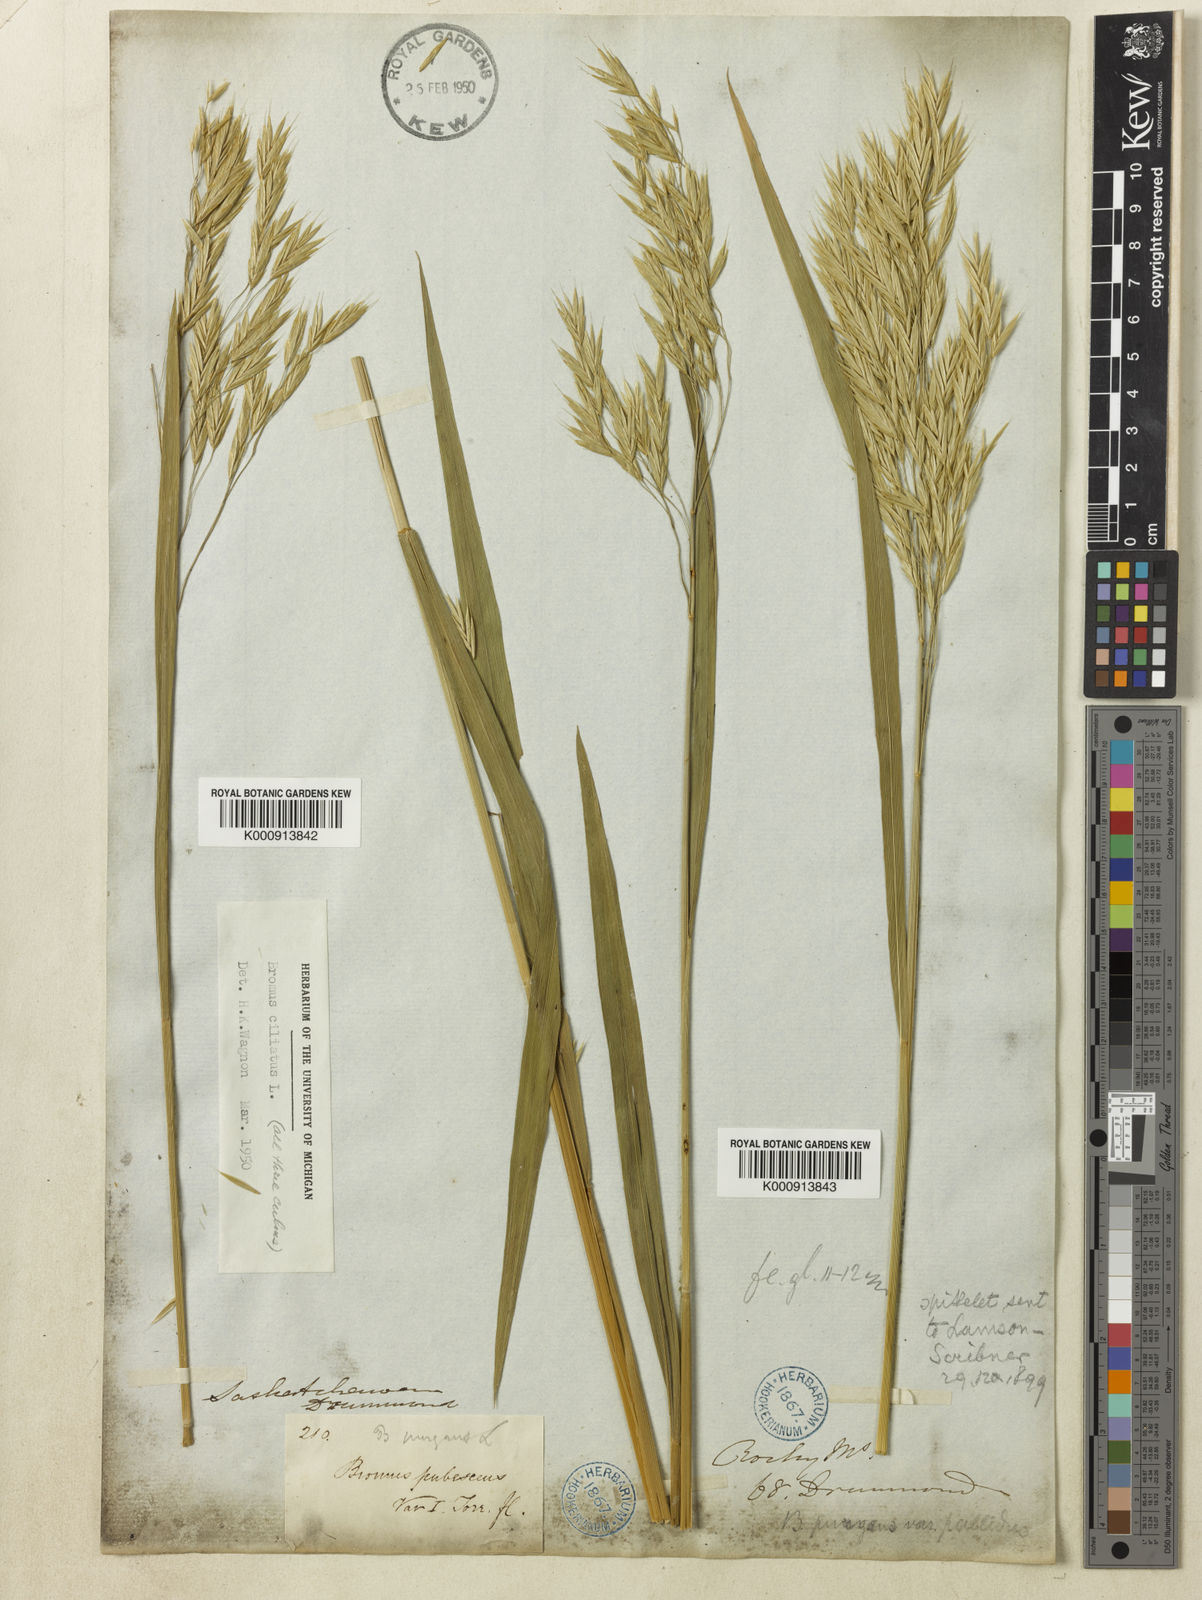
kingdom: Plantae
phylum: Tracheophyta
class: Liliopsida
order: Poales
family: Poaceae
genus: Bromus
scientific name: Bromus ciliatus
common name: Fringe brome
